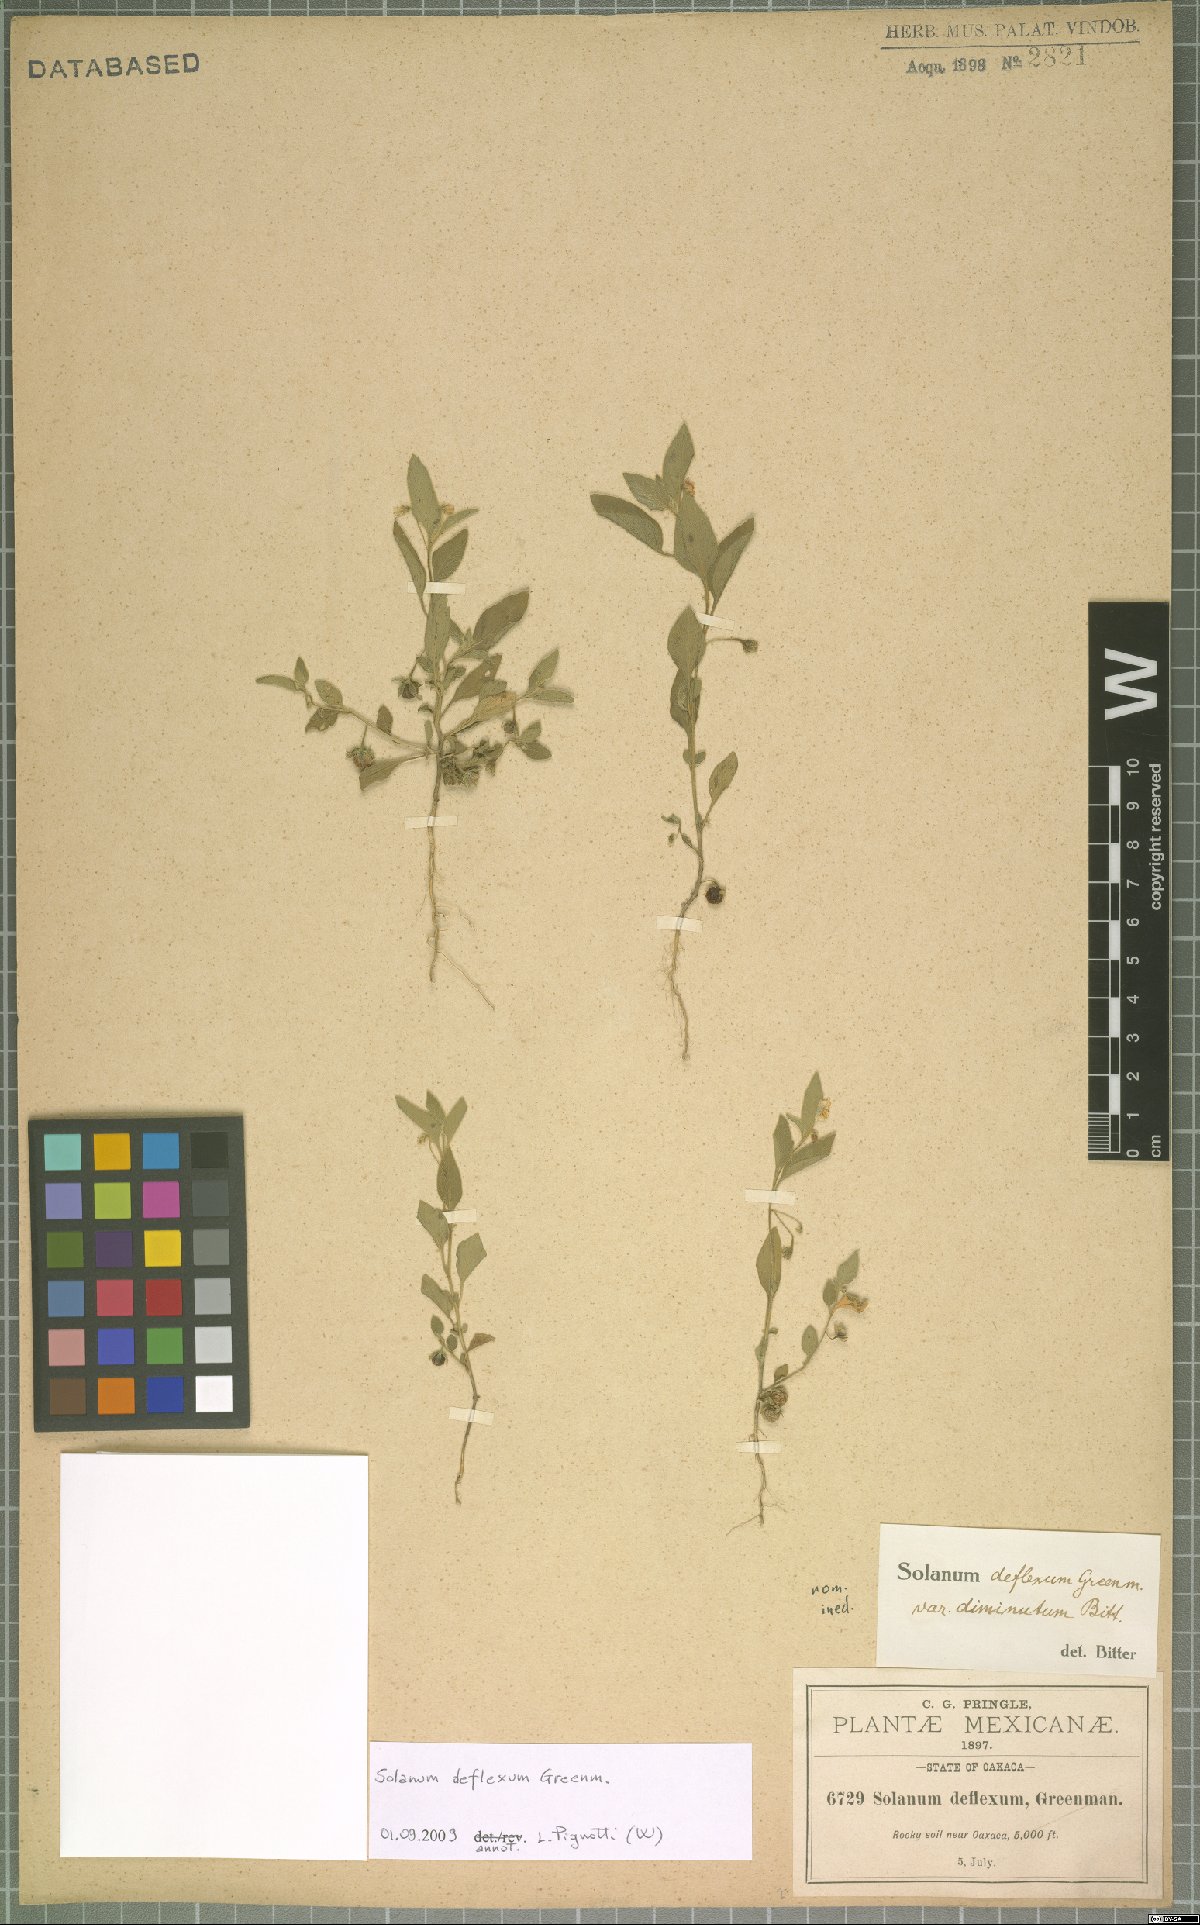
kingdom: Plantae
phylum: Tracheophyta
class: Magnoliopsida
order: Solanales
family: Solanaceae
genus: Solanum
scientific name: Solanum deflexum
